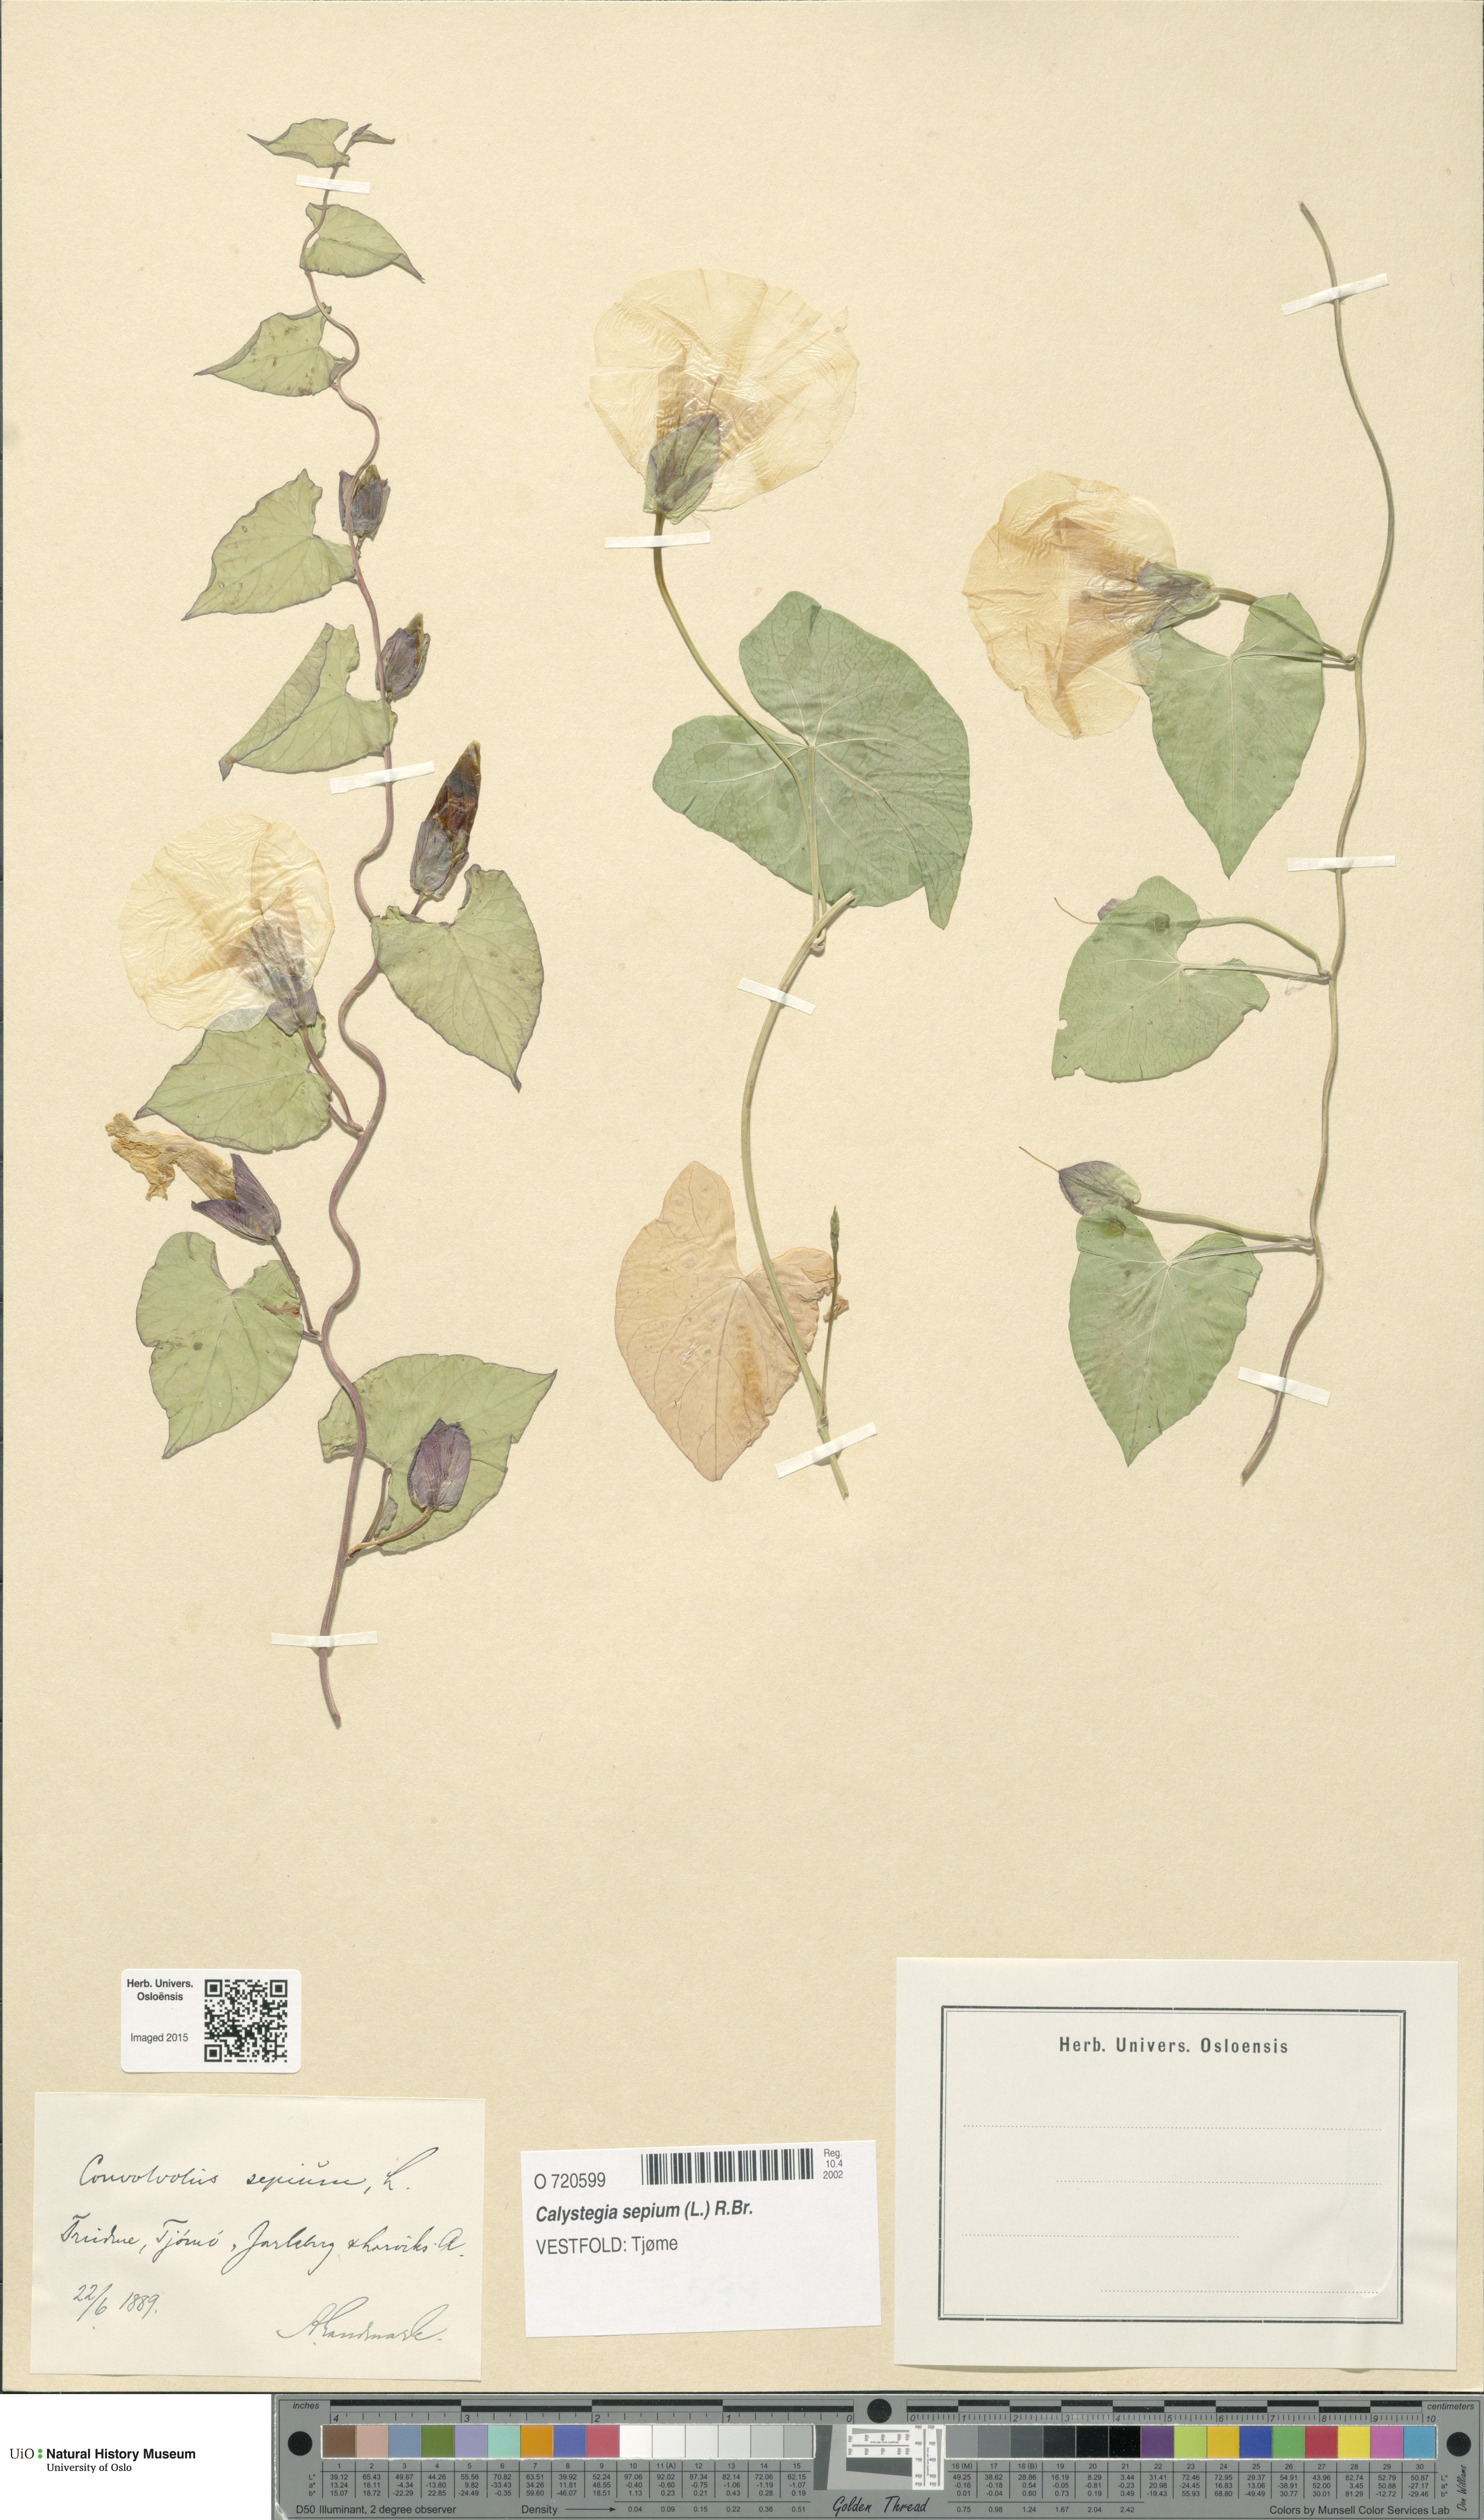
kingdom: Plantae
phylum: Tracheophyta
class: Magnoliopsida
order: Solanales
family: Convolvulaceae
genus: Calystegia
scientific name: Calystegia sepium
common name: Hedge bindweed
